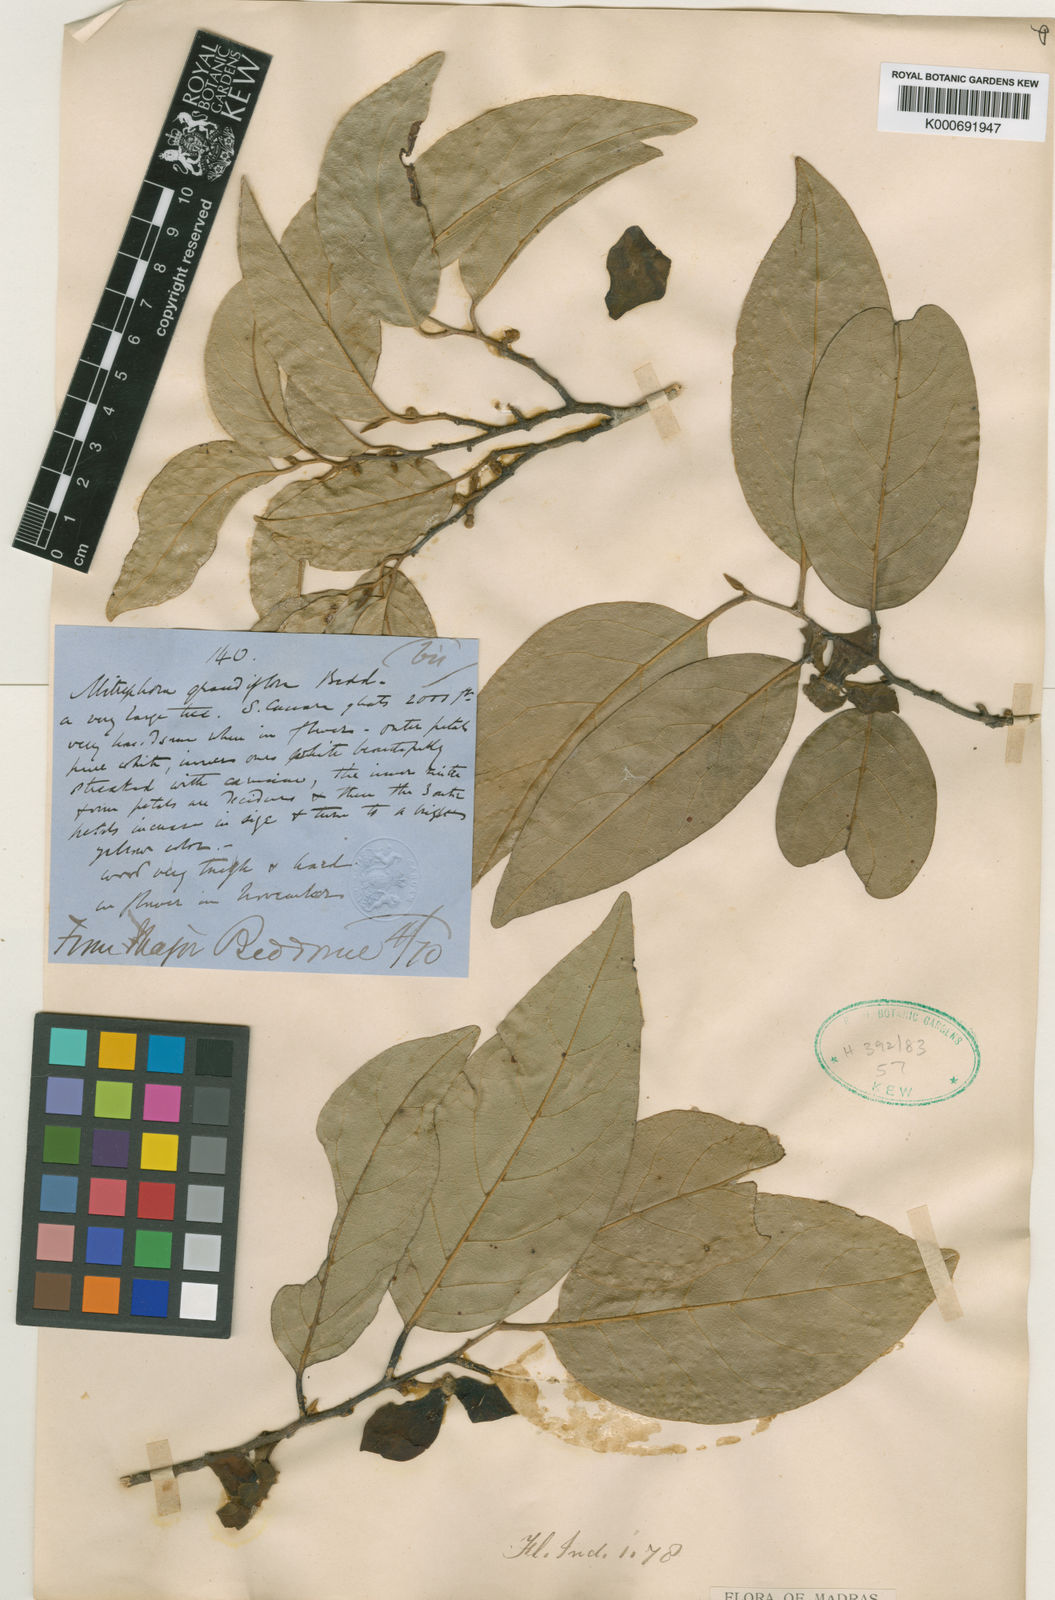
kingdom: Plantae
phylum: Tracheophyta
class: Magnoliopsida
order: Magnoliales
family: Annonaceae
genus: Mitrephora
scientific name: Mitrephora grandiflora
